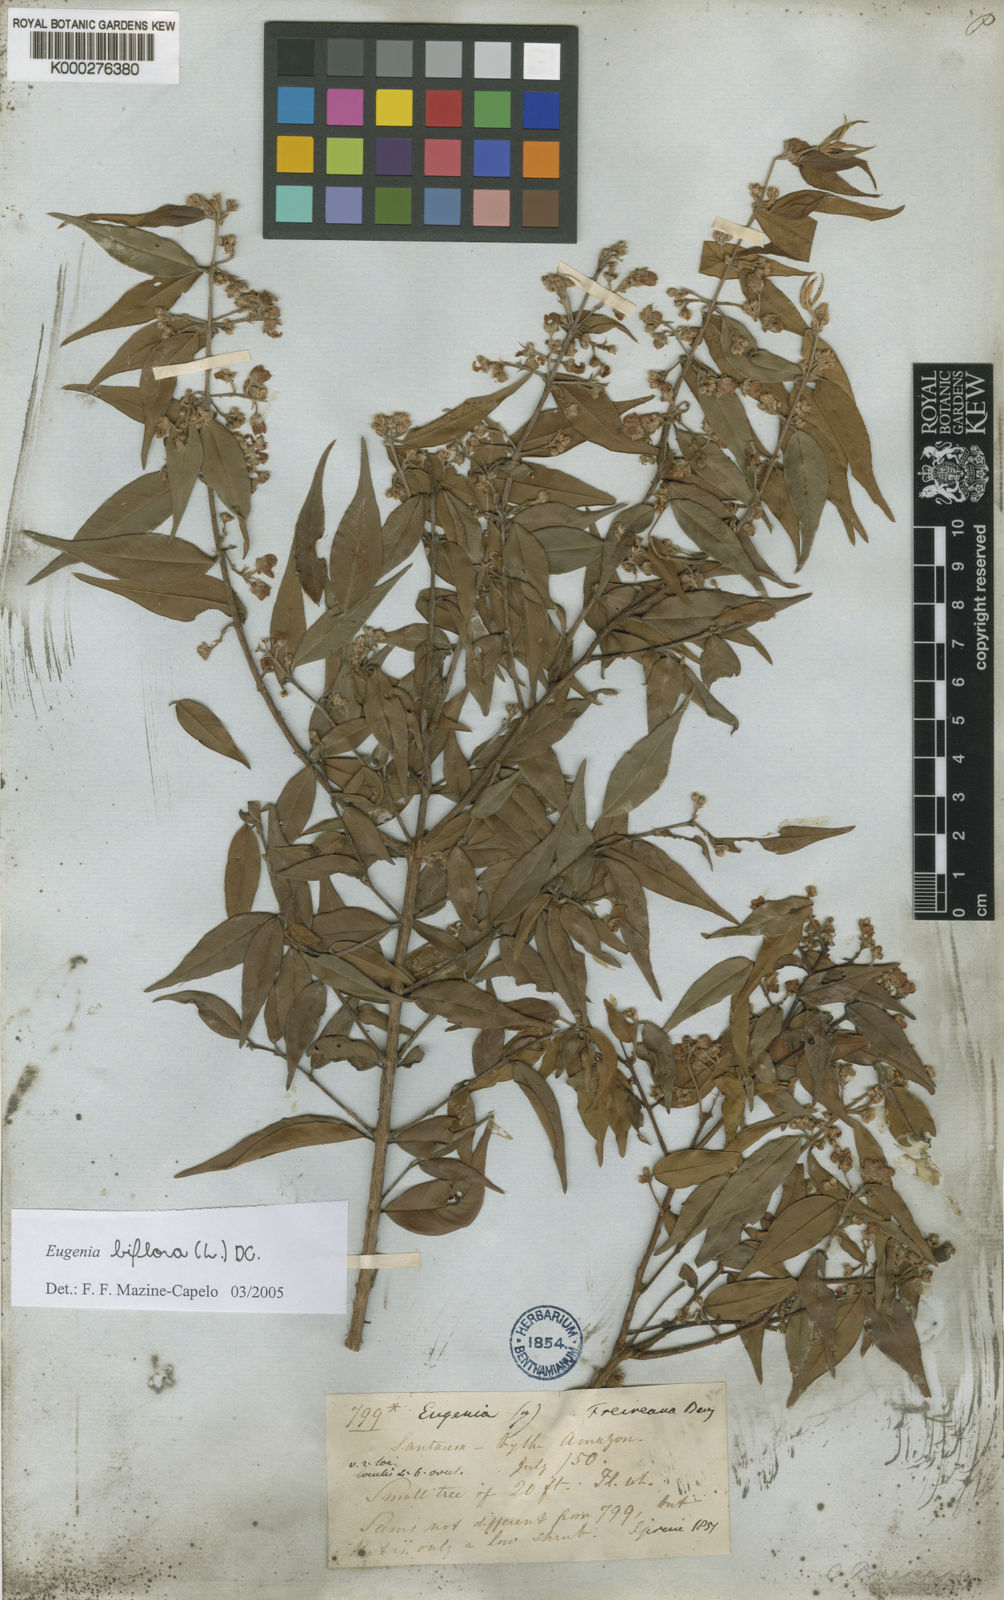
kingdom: Plantae
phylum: Tracheophyta
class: Magnoliopsida
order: Myrtales
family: Myrtaceae
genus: Eugenia
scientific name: Eugenia biflora
